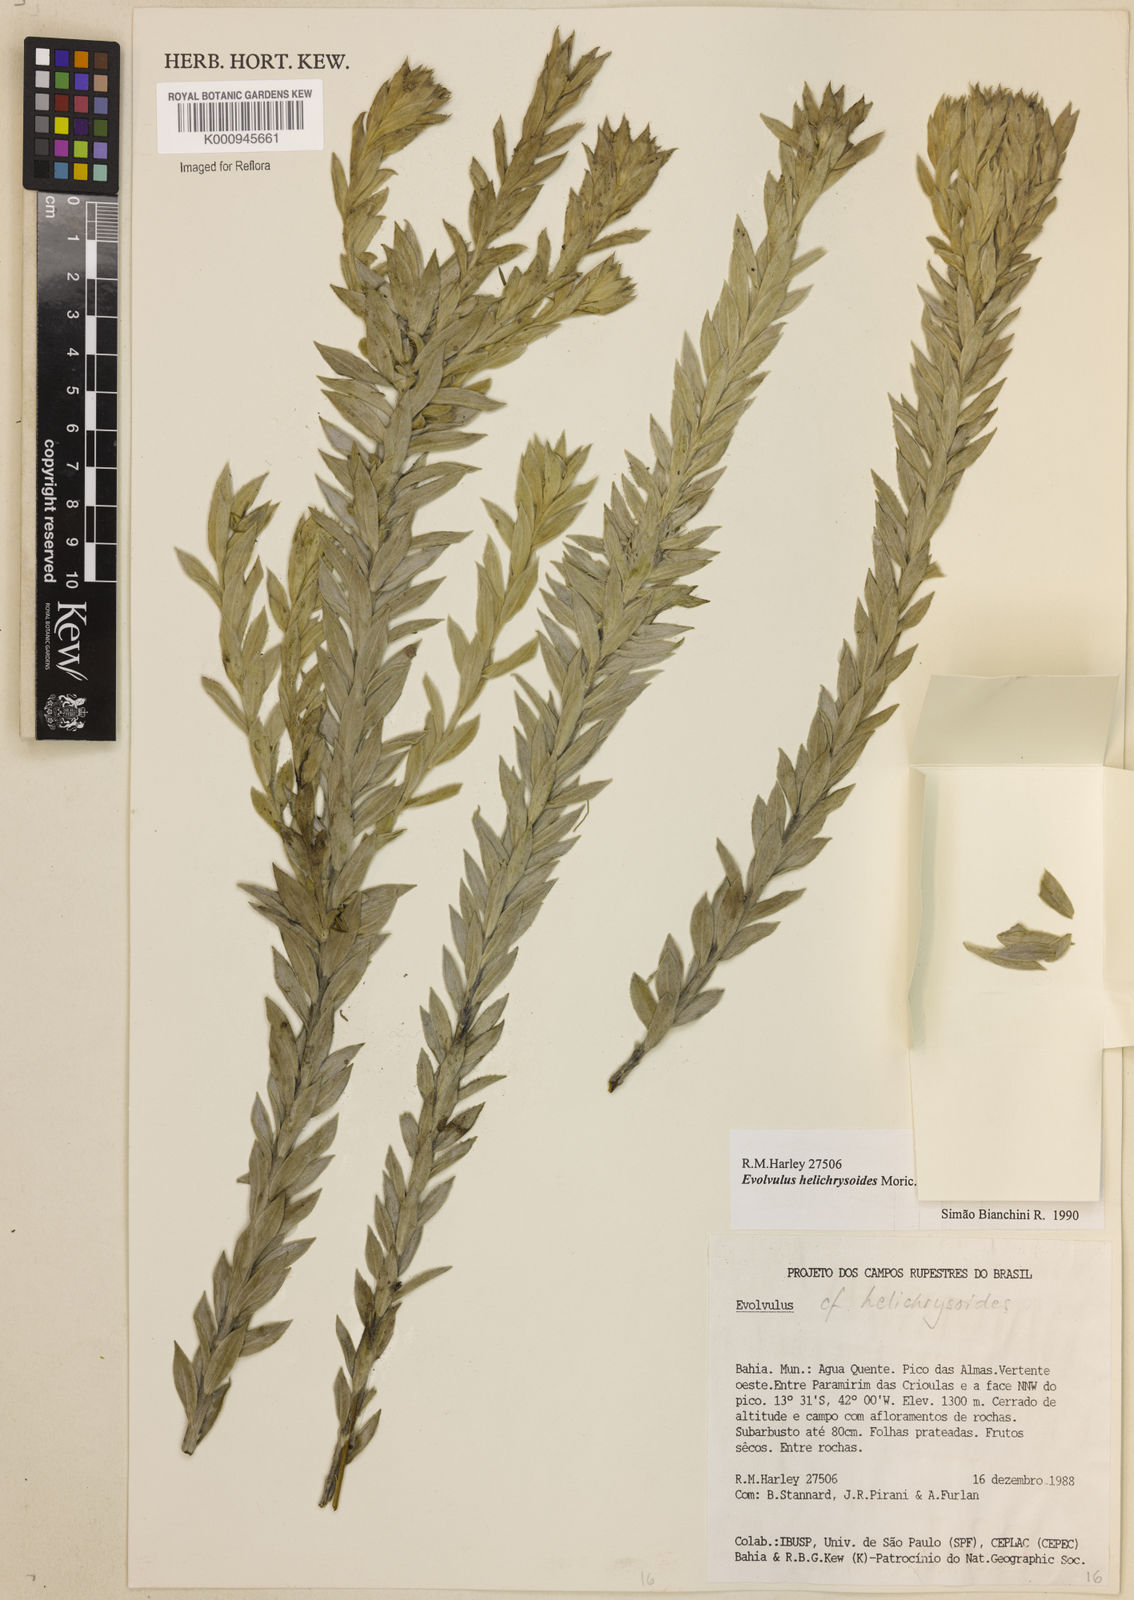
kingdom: Plantae
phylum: Tracheophyta
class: Magnoliopsida
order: Solanales
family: Convolvulaceae
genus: Evolvulus
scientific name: Evolvulus helichrysoides
